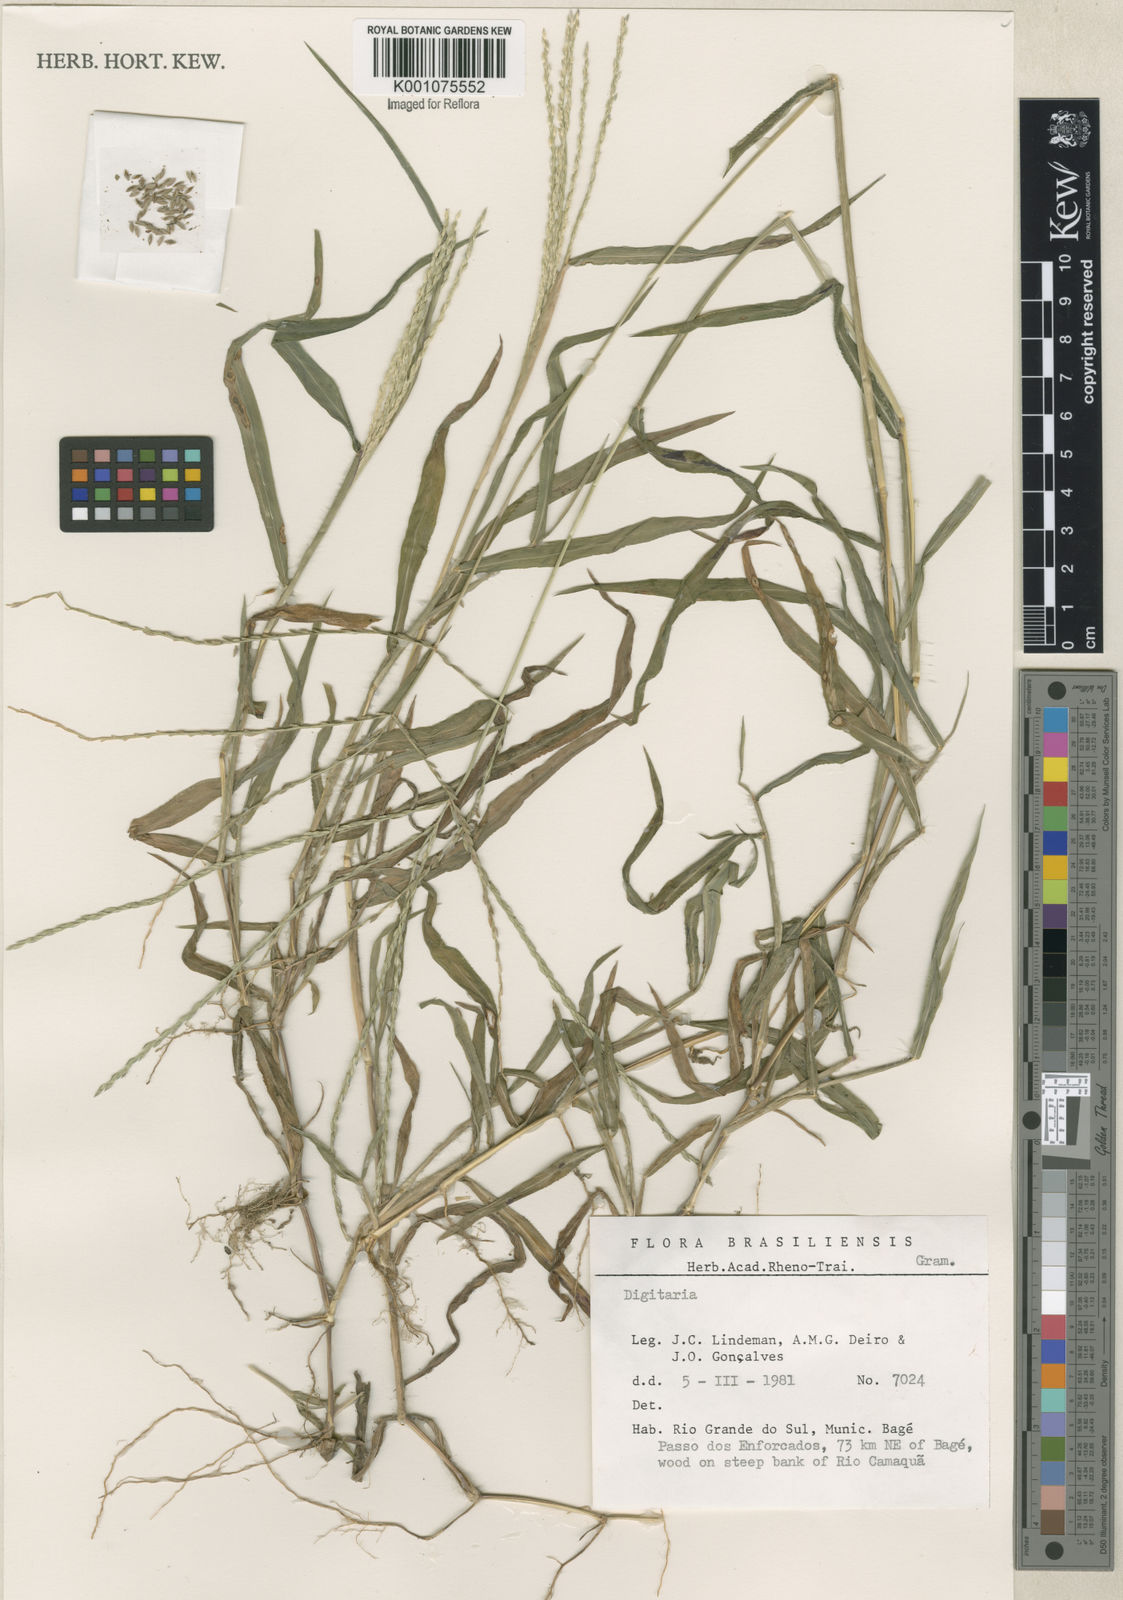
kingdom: Plantae
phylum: Tracheophyta
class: Liliopsida
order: Poales
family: Poaceae
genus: Digitaria
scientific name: Digitaria ciliaris
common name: Tropical finger-grass
